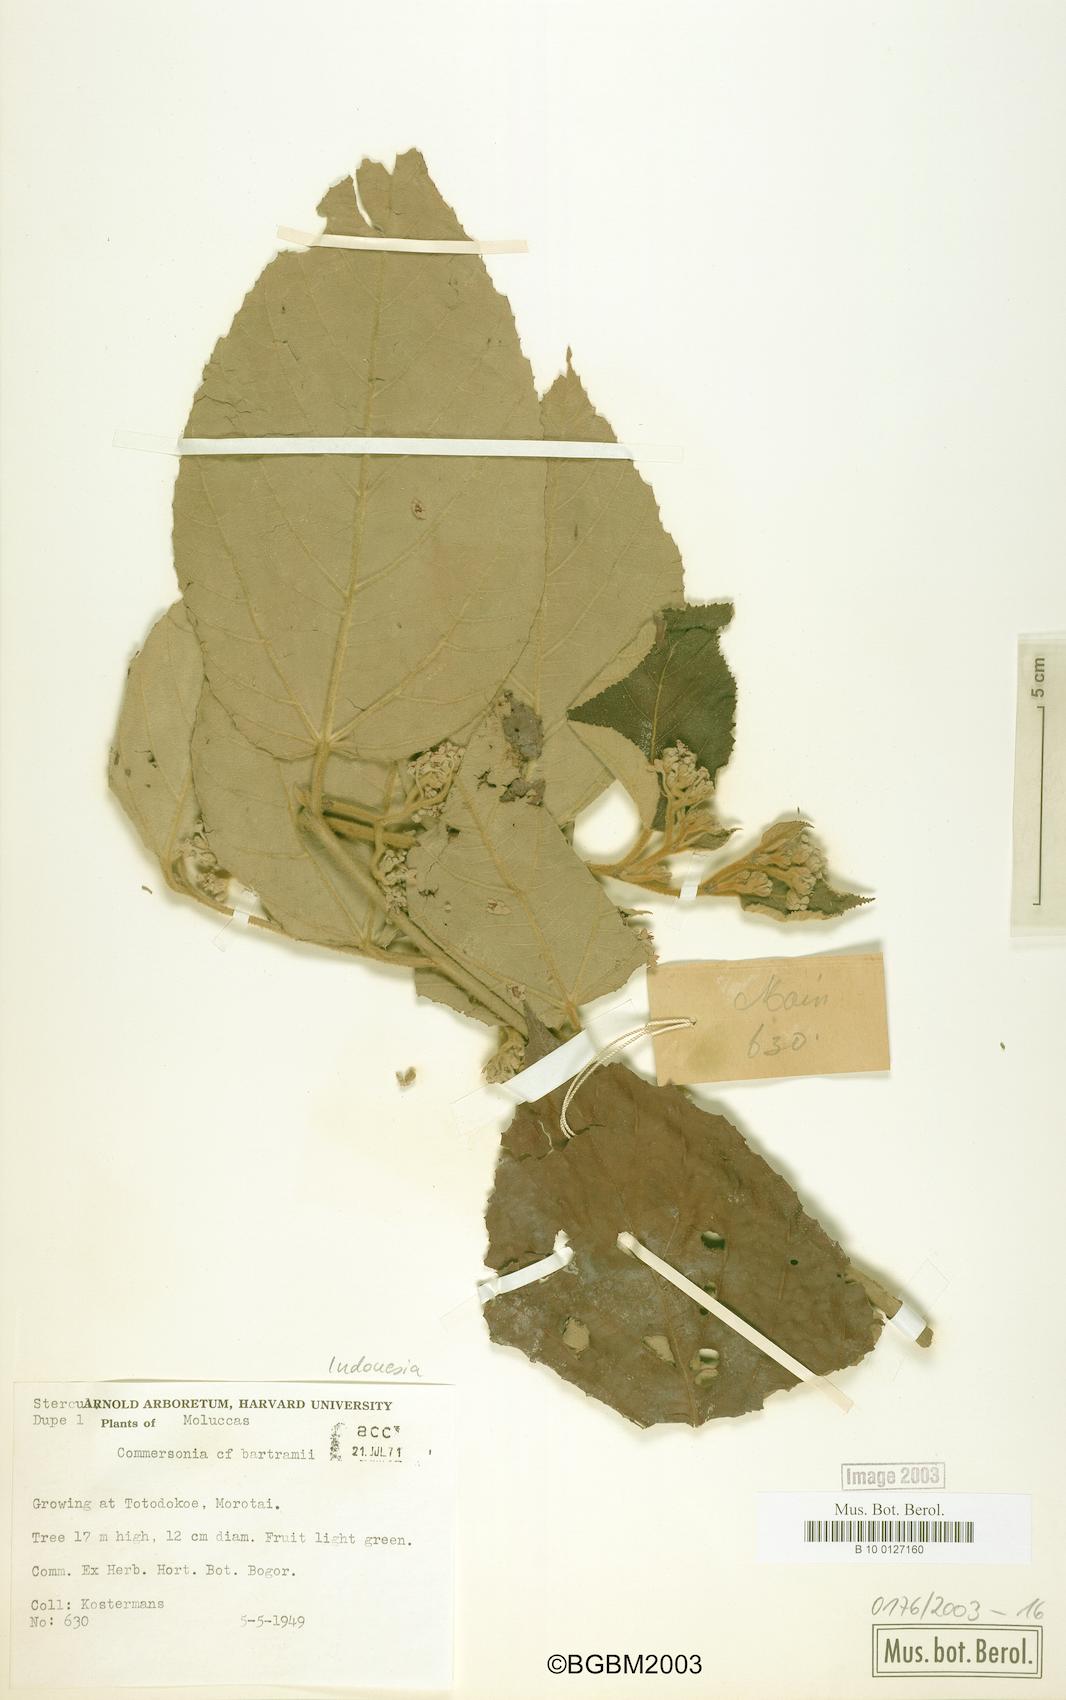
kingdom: Plantae
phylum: Tracheophyta
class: Magnoliopsida
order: Malvales
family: Malvaceae
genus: Commersonia
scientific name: Commersonia bartramia
